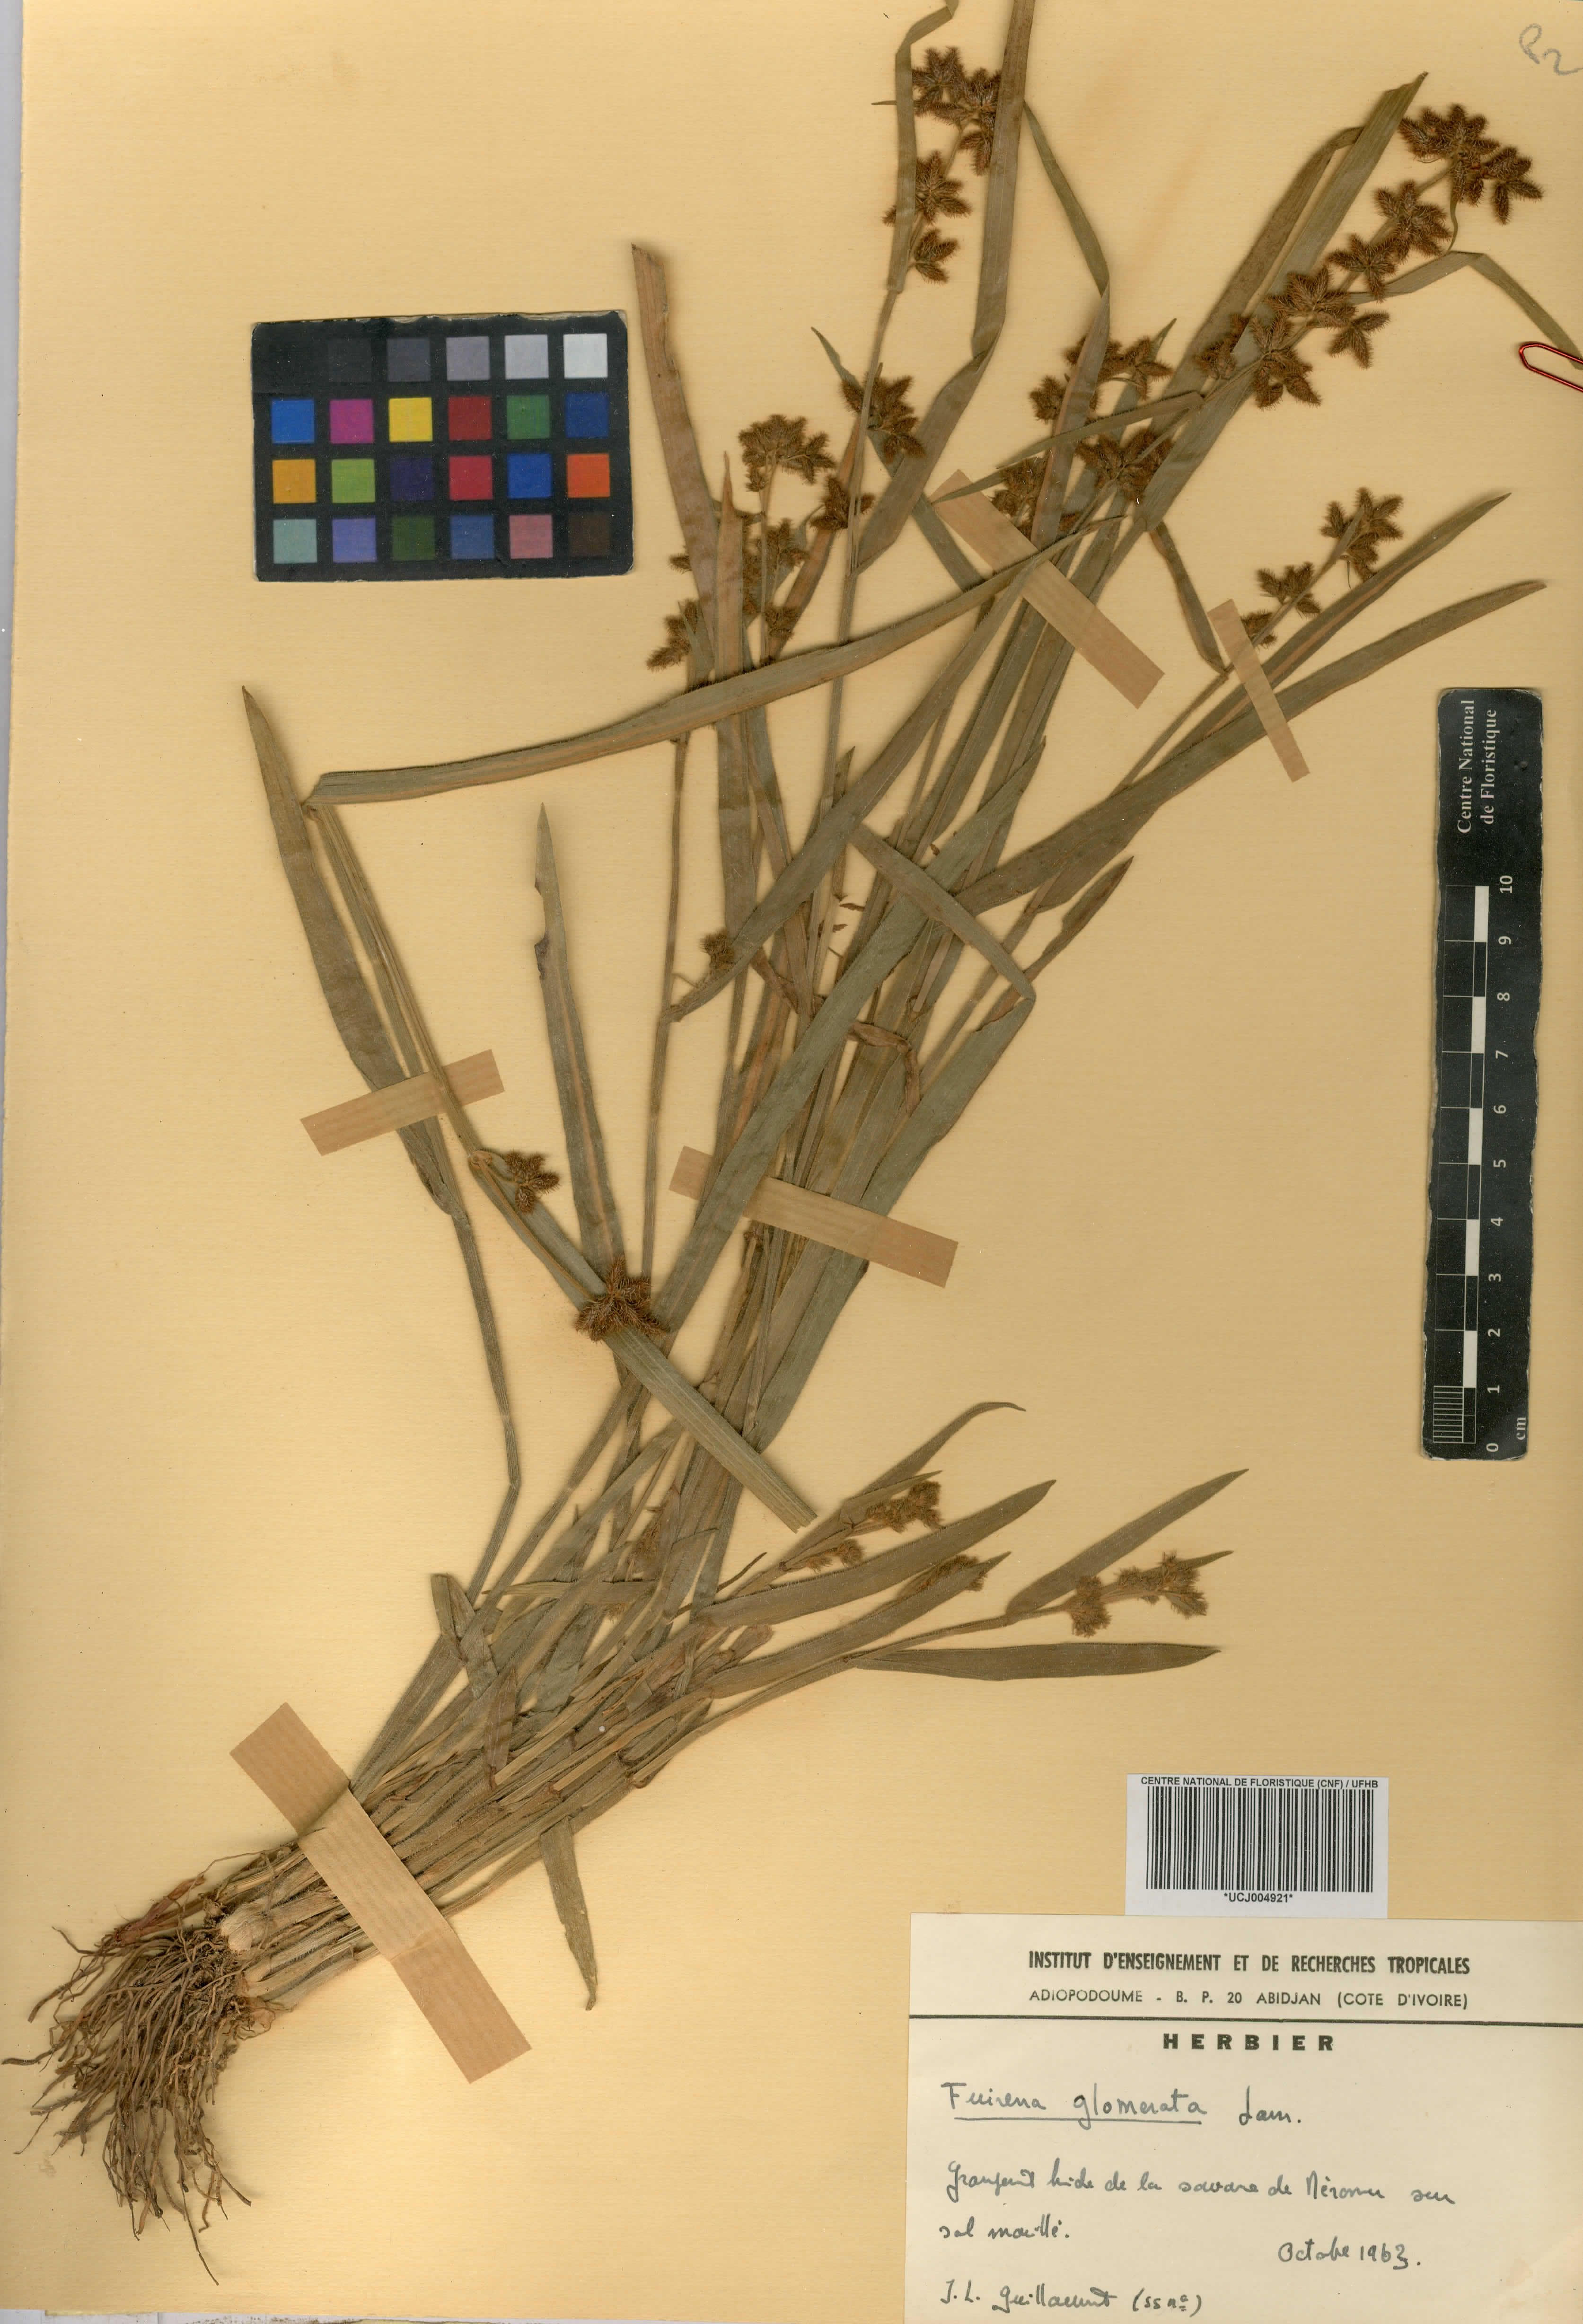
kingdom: Plantae
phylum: Tracheophyta
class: Liliopsida
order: Poales
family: Cyperaceae
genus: Fuirena
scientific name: Fuirena umbellata
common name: Yefen
